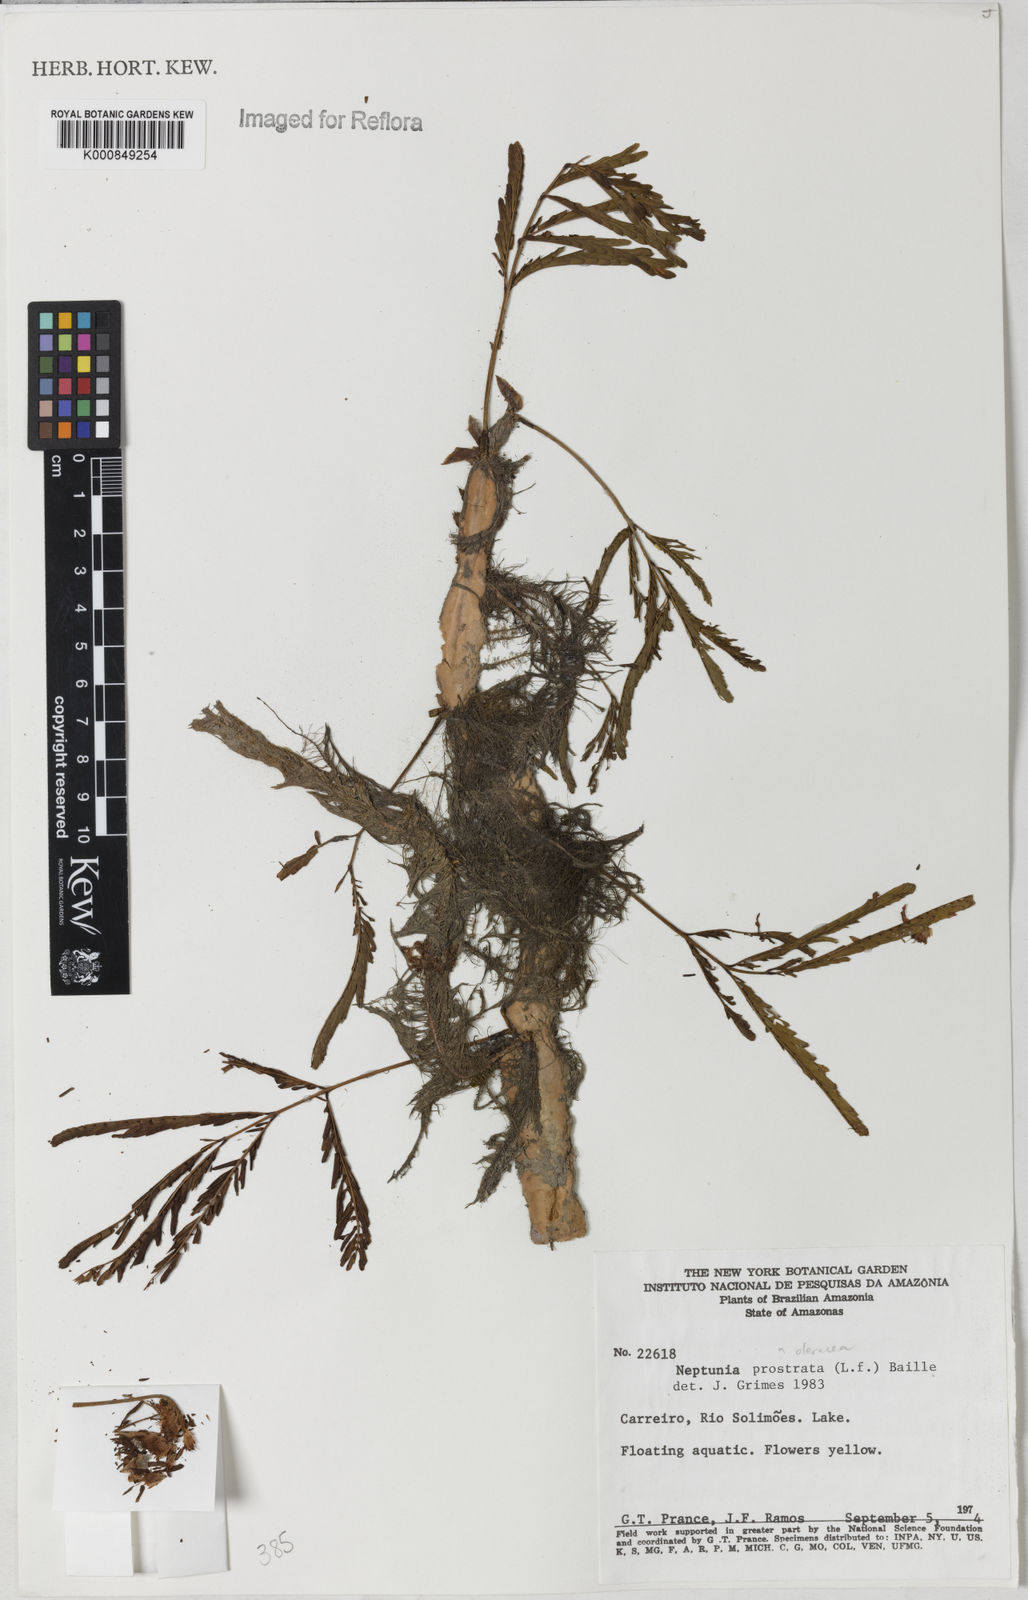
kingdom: Plantae
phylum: Tracheophyta
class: Magnoliopsida
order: Fabales
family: Fabaceae
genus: Neptunia
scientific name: Neptunia prostrata
